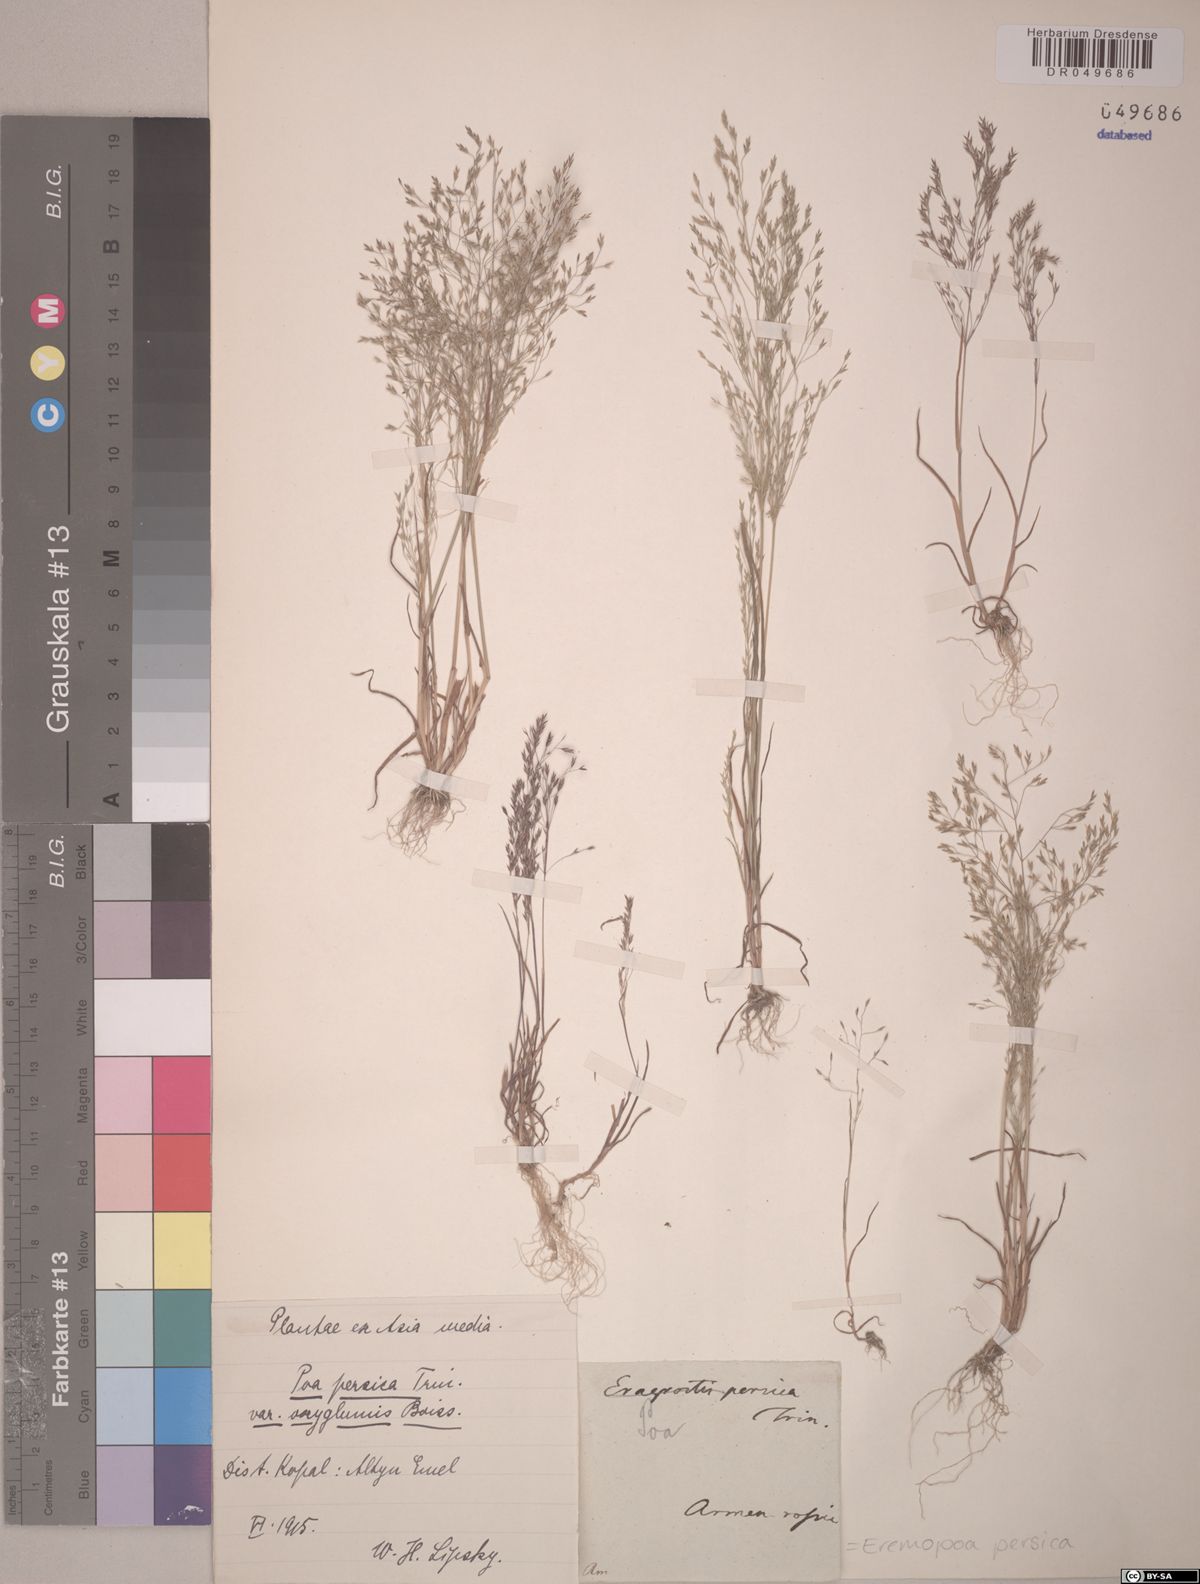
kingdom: Plantae
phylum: Tracheophyta
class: Liliopsida
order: Poales
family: Poaceae
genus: Poa
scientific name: Poa persica
